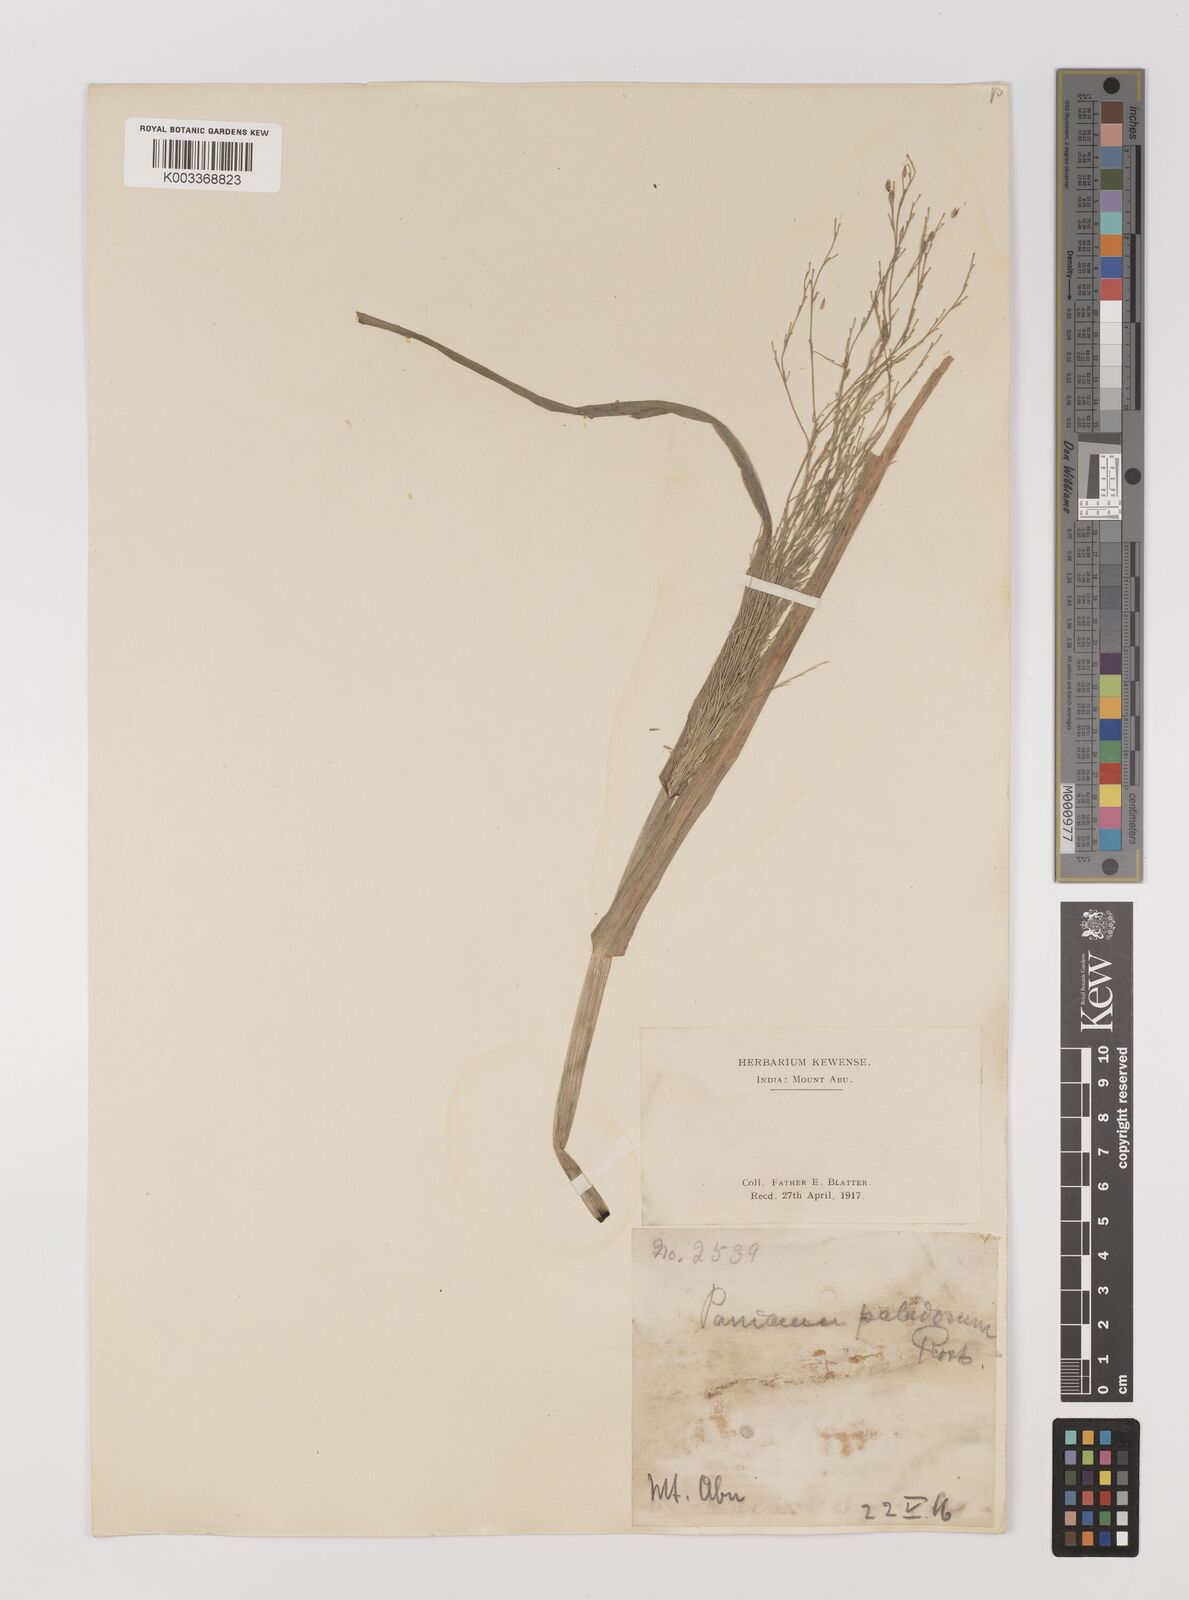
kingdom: Plantae
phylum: Tracheophyta
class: Liliopsida
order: Poales
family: Poaceae
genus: Louisiella
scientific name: Louisiella paludosa
